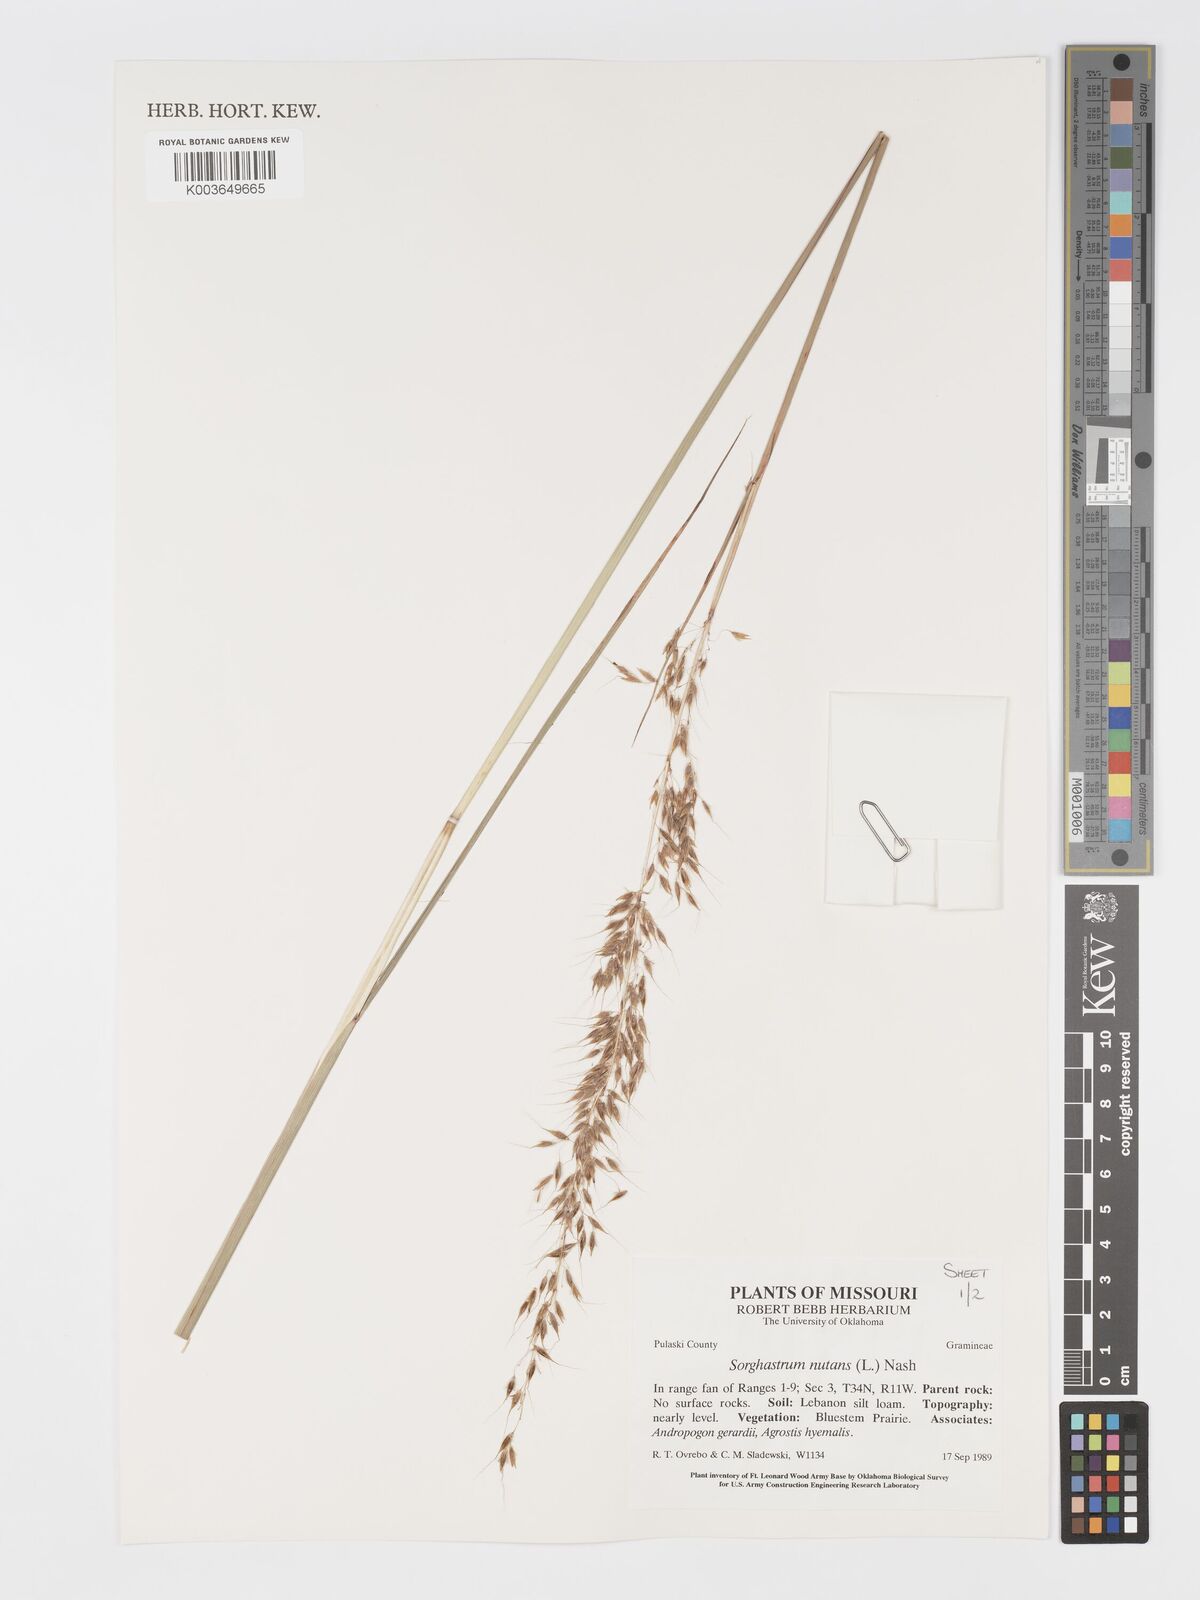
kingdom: Plantae
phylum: Tracheophyta
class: Liliopsida
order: Poales
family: Poaceae
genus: Sorghastrum
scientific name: Sorghastrum nutans
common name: Indian grass
